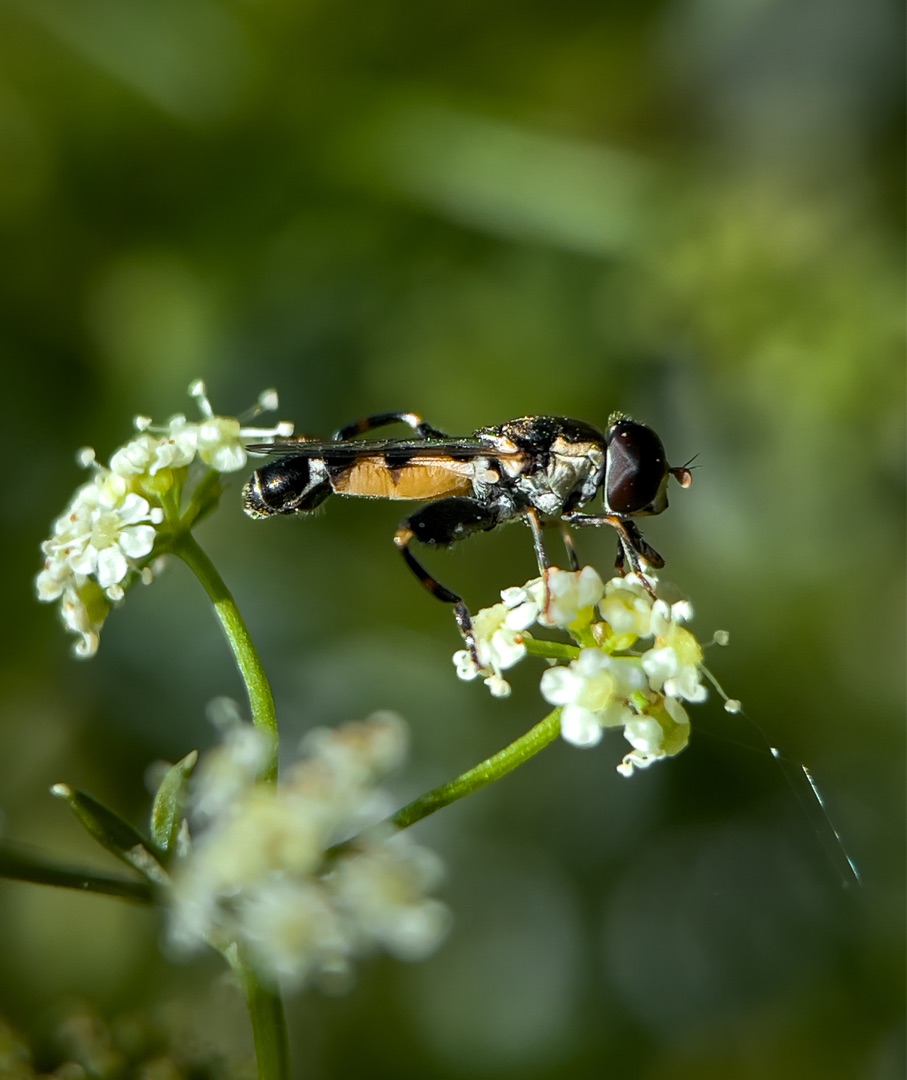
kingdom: Animalia
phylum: Arthropoda
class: Insecta
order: Diptera
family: Syrphidae
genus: Syritta
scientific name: Syritta pipiens
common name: Kompost-svirreflue
